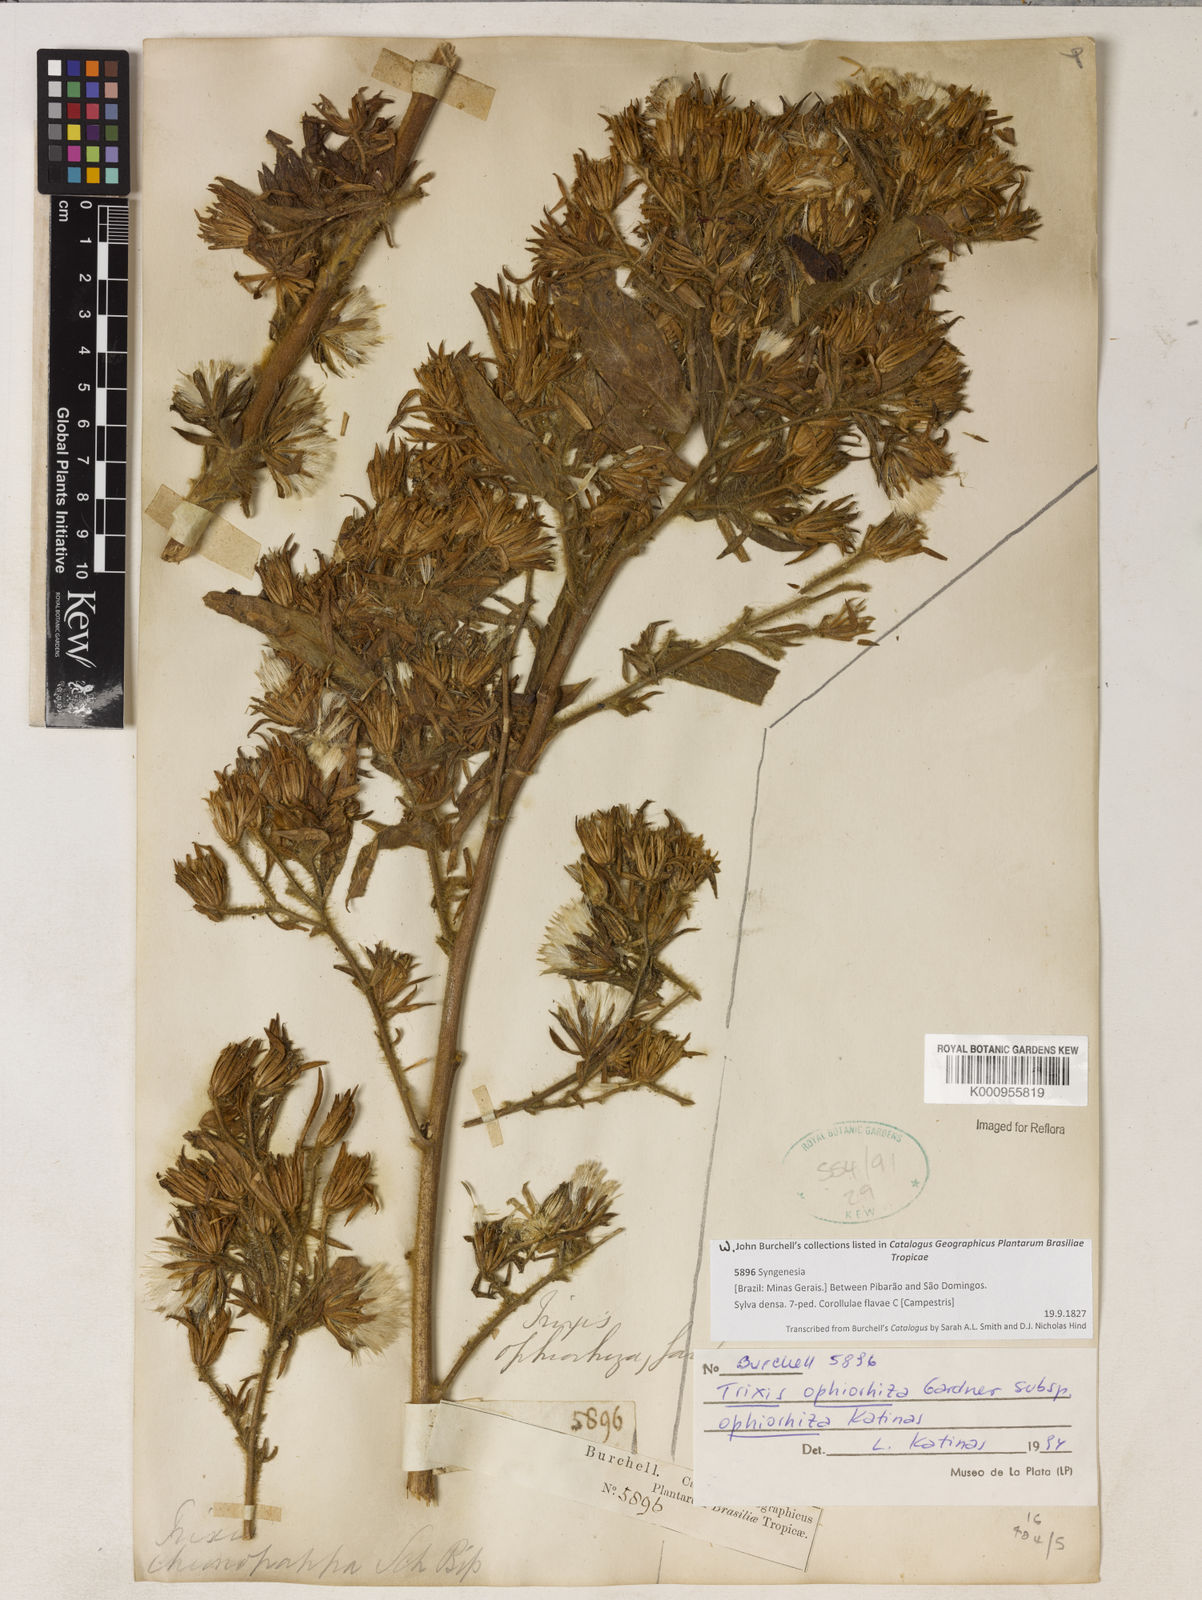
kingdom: Plantae
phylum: Tracheophyta
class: Magnoliopsida
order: Asterales
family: Asteraceae
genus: Trixis
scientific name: Trixis ophiorhiza
